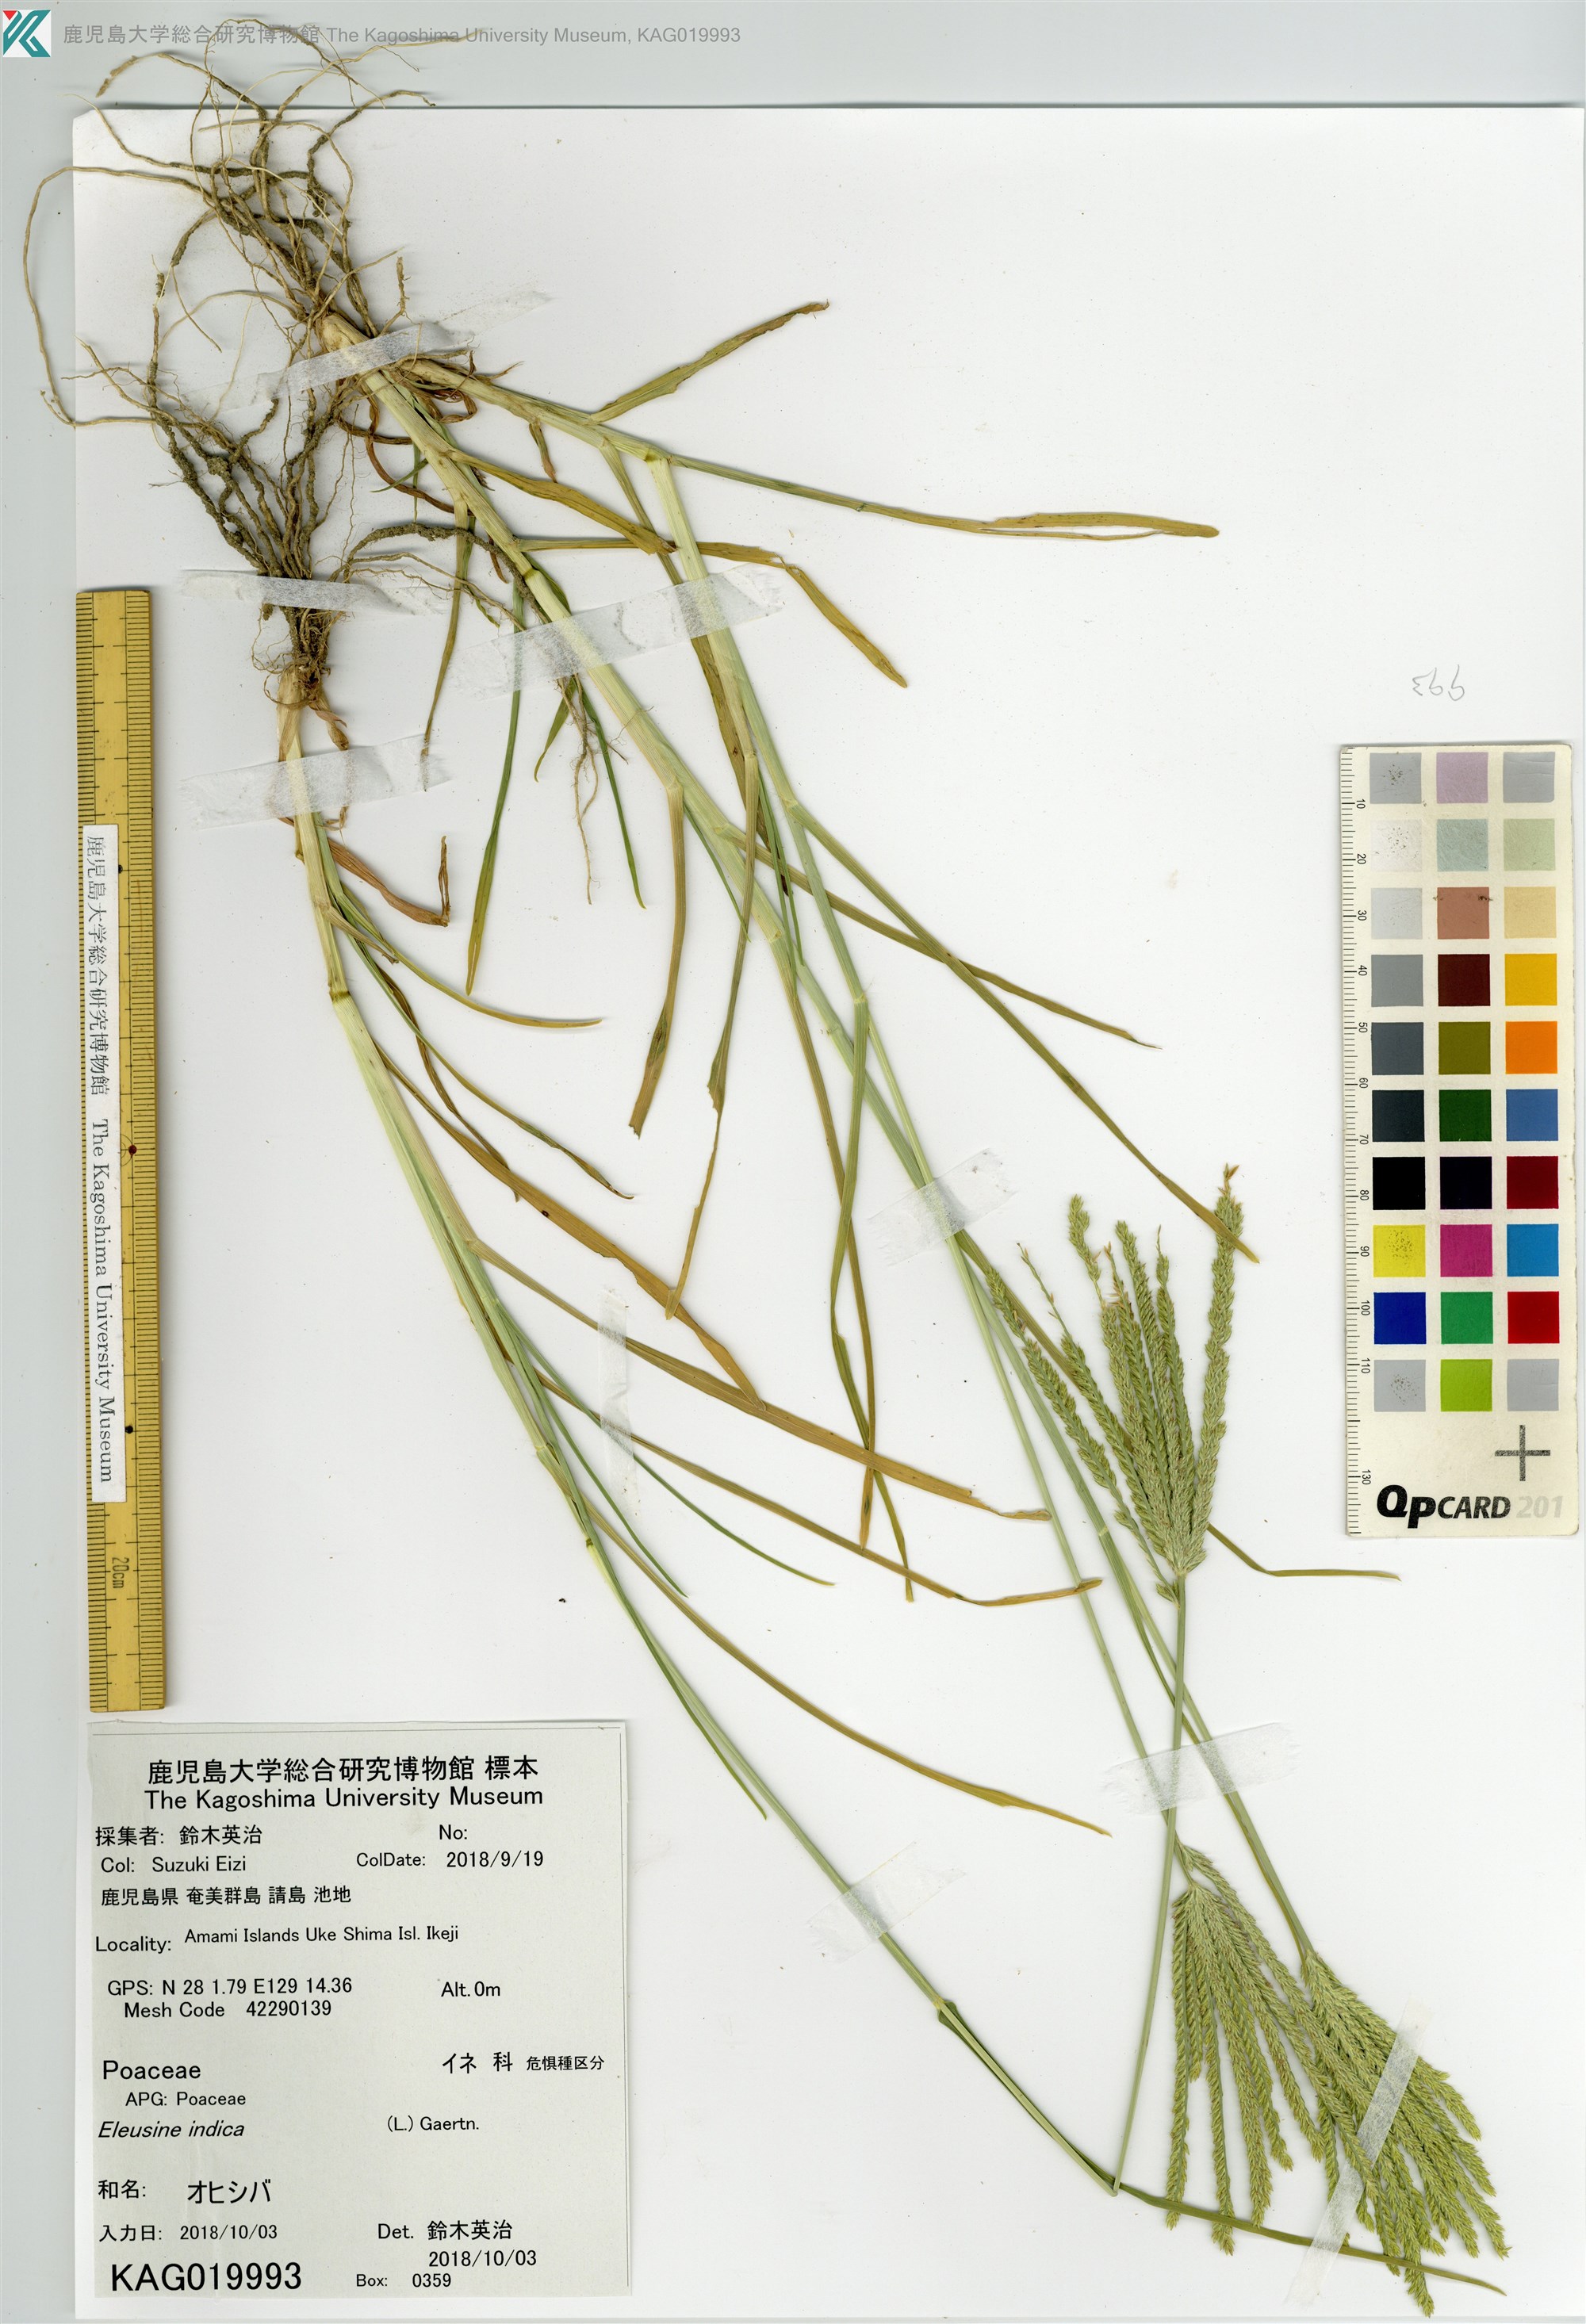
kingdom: Plantae
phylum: Tracheophyta
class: Liliopsida
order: Poales
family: Poaceae
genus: Eleusine
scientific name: Eleusine indica
